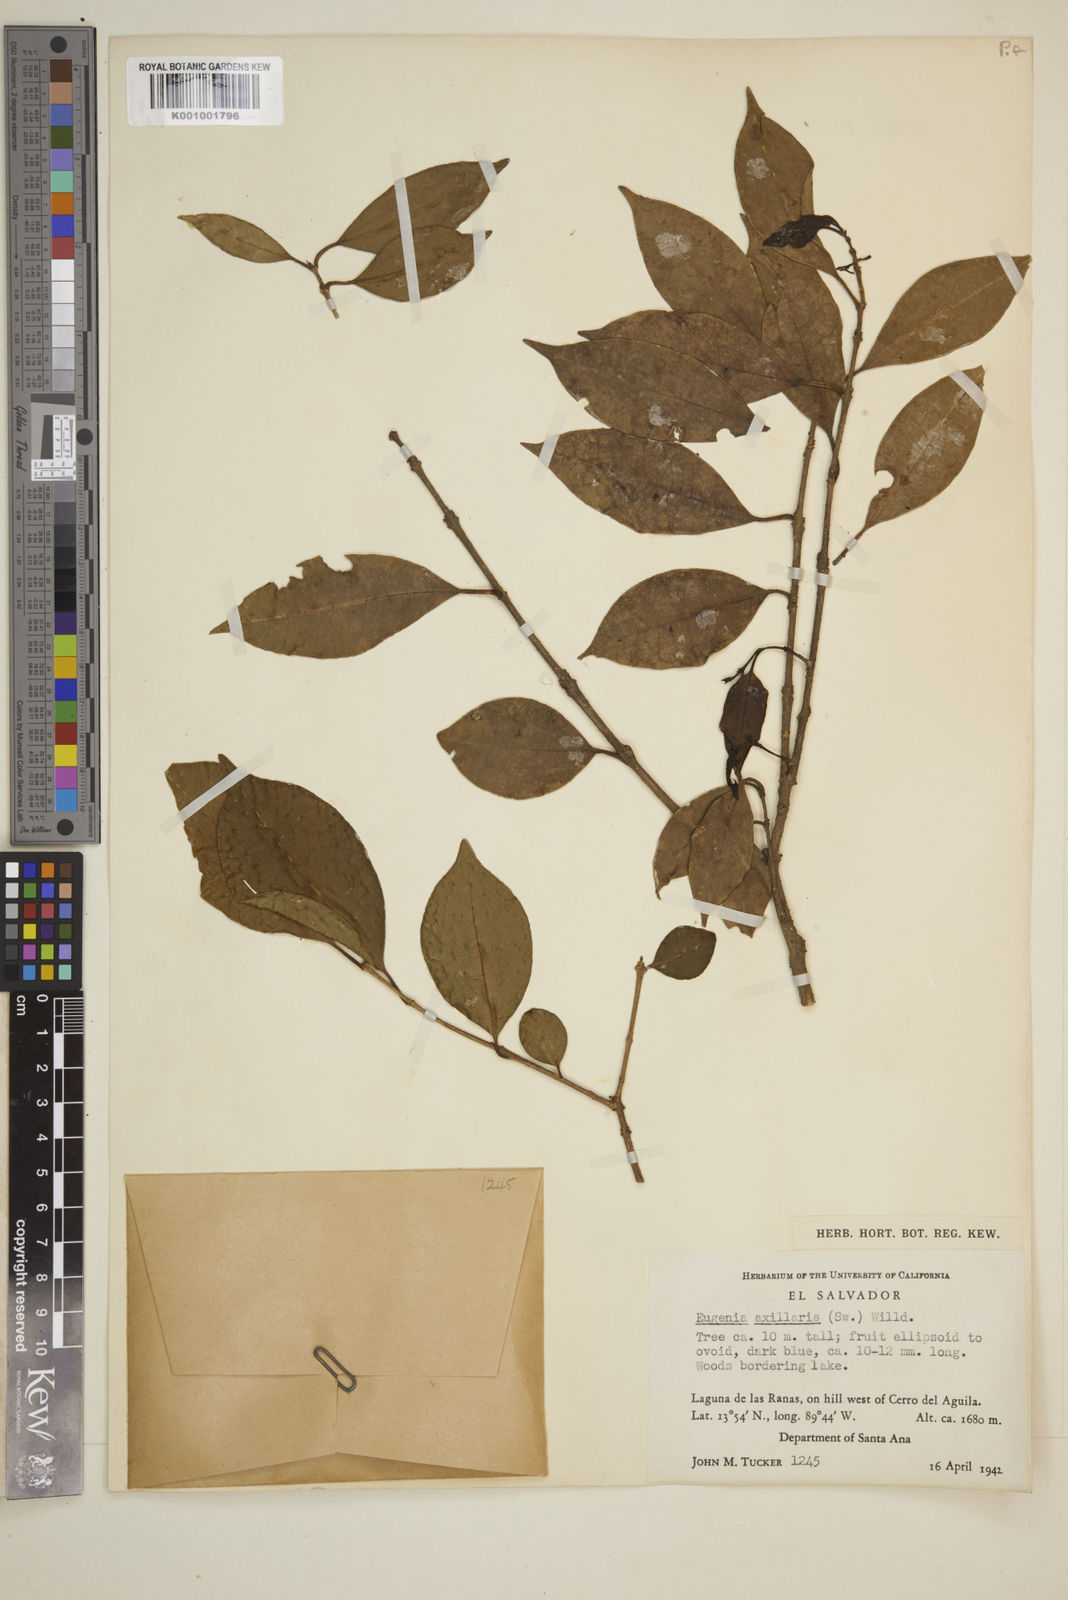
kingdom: Plantae
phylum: Tracheophyta
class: Magnoliopsida
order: Myrtales
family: Myrtaceae
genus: Eugenia
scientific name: Eugenia axillaris
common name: Choaky berry
